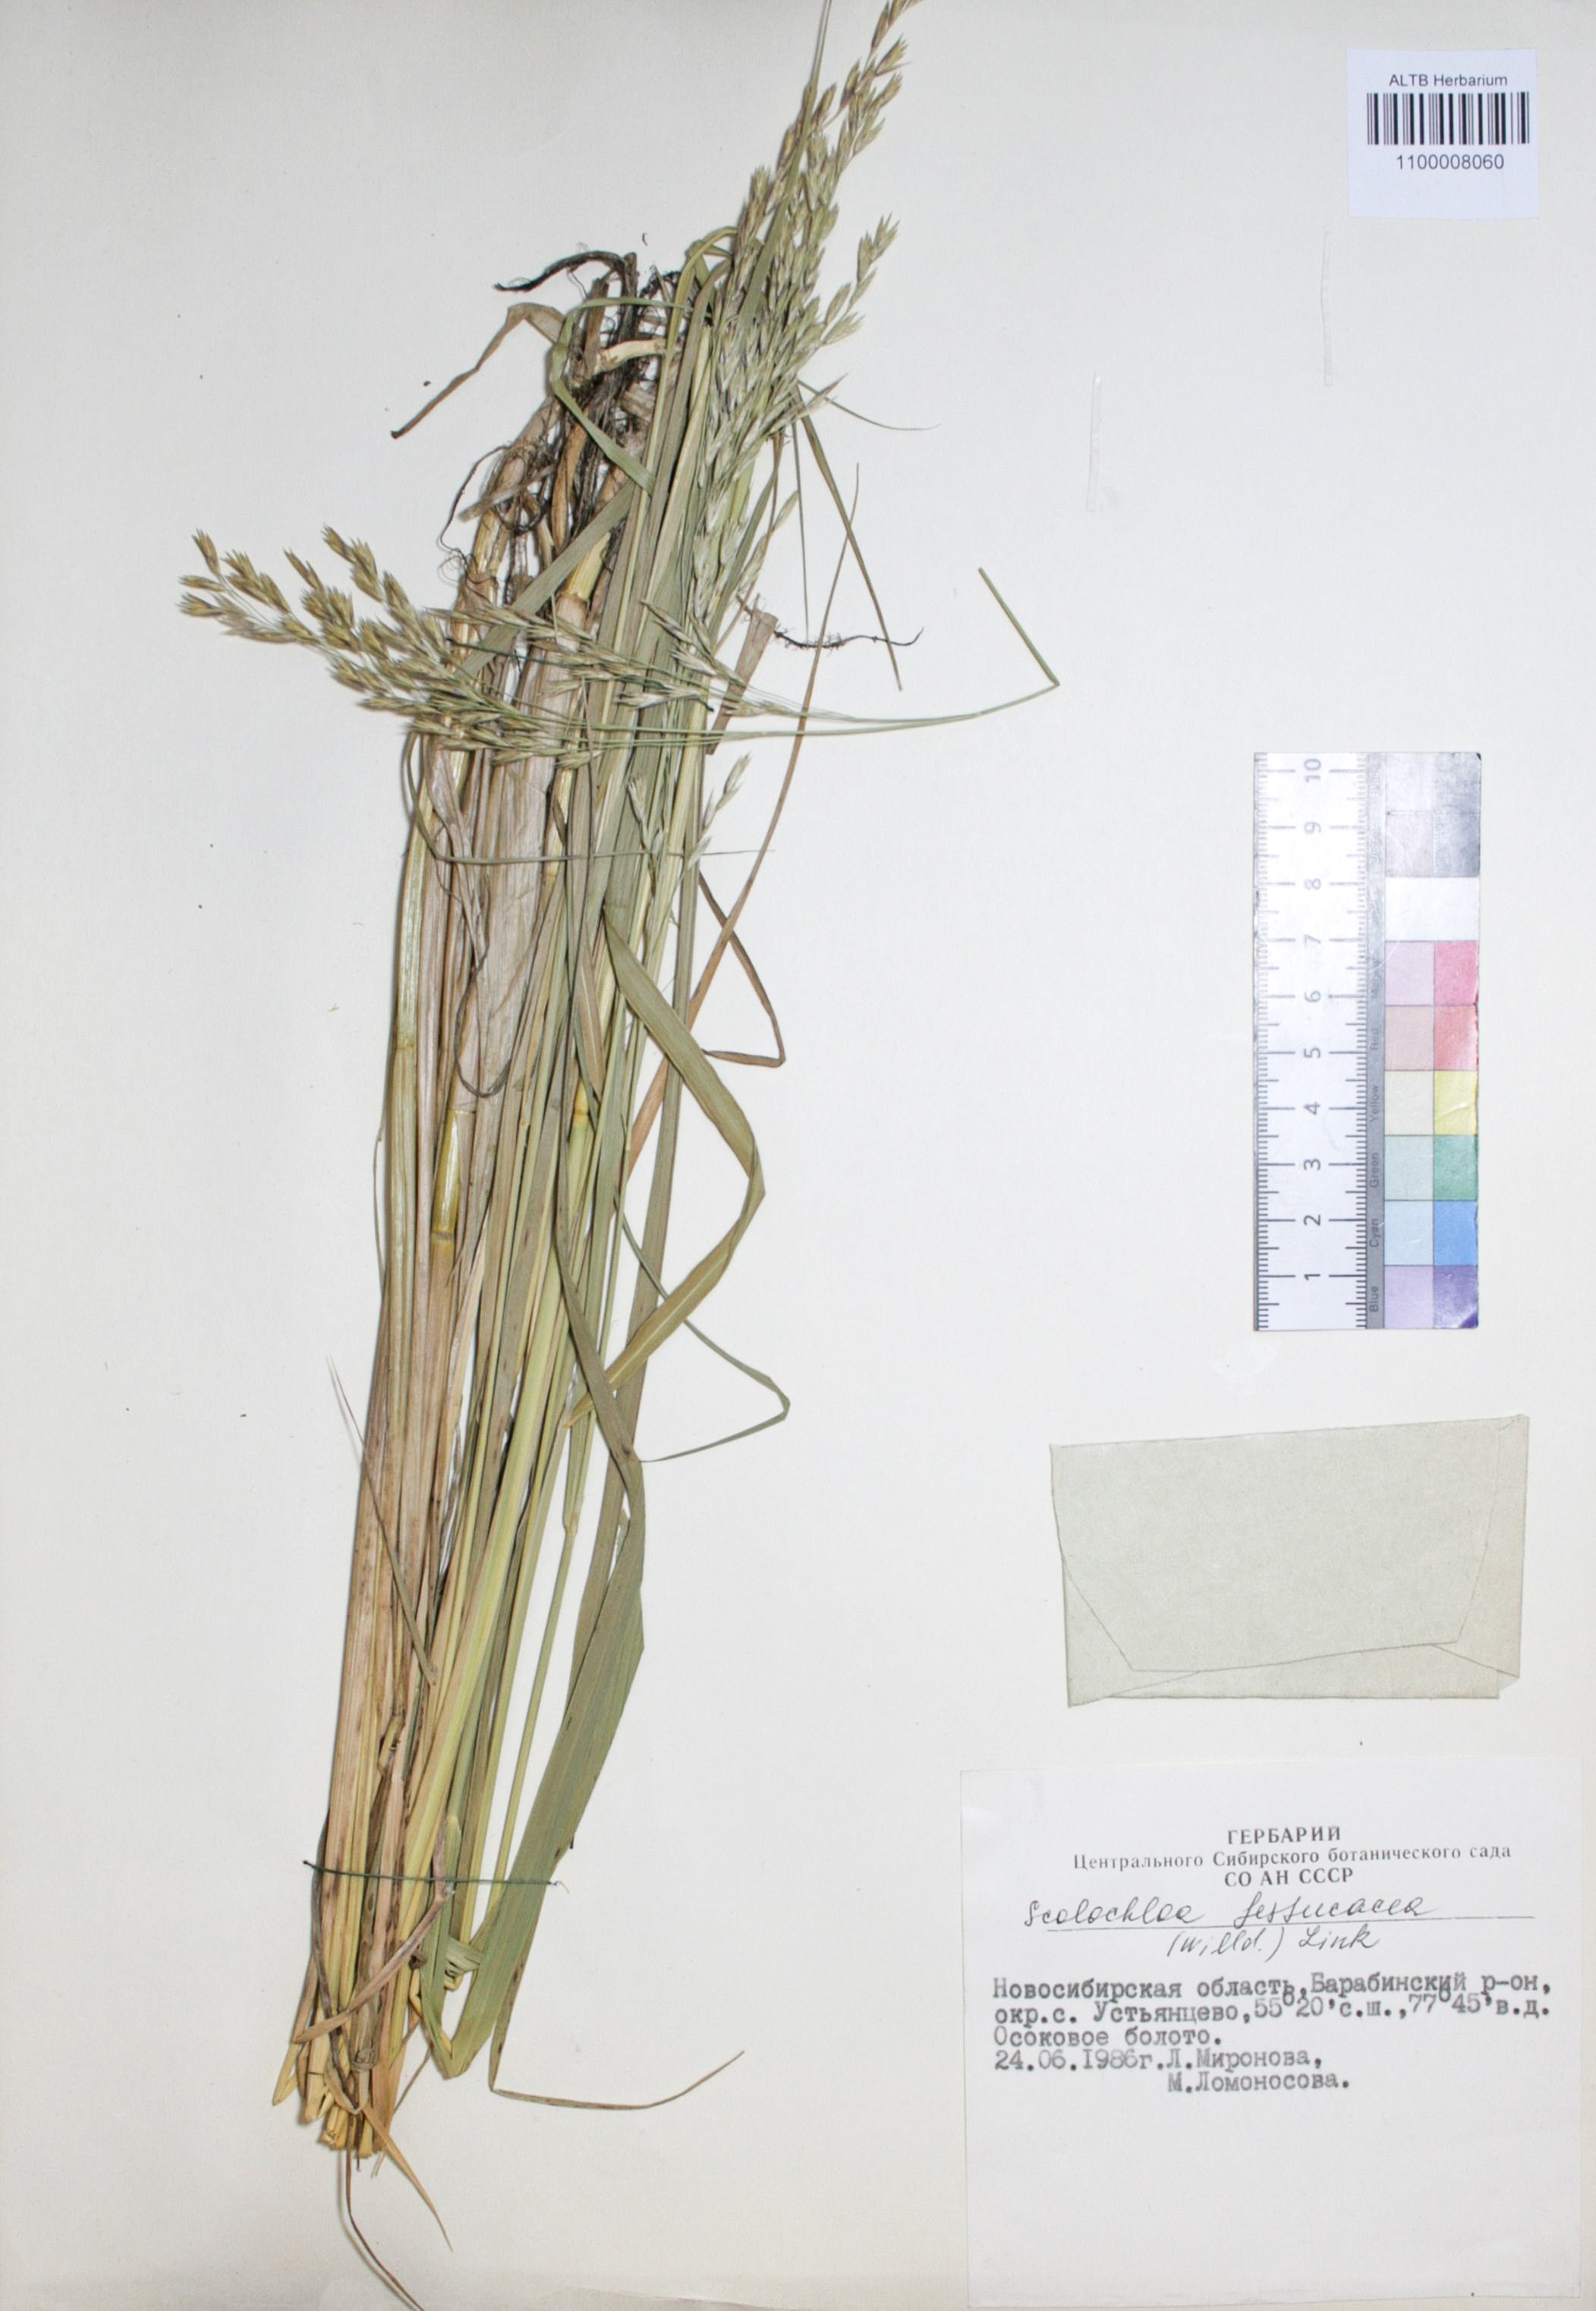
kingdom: Plantae
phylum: Tracheophyta
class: Liliopsida
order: Poales
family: Poaceae
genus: Scolochloa
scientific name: Scolochloa festucacea
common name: Common rivergrass
